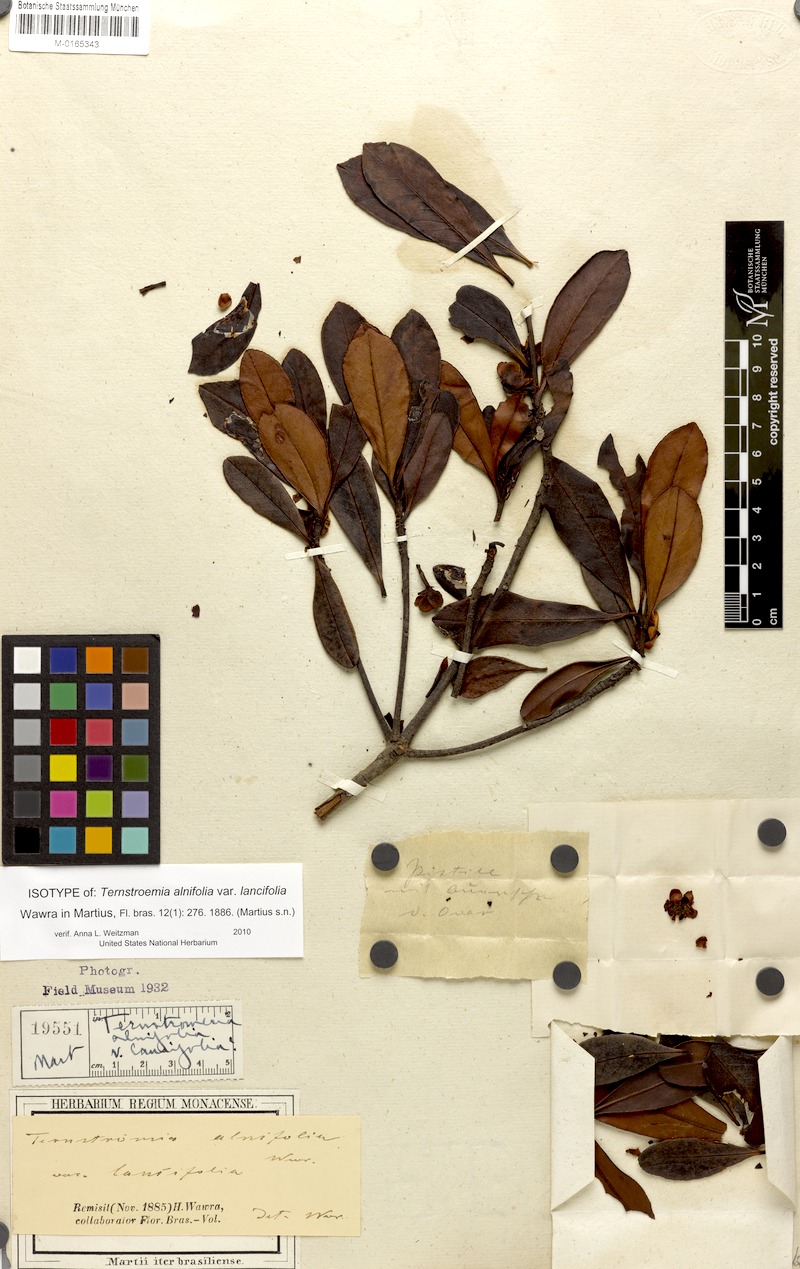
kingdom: Plantae
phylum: Tracheophyta
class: Magnoliopsida
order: Ericales
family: Pentaphylacaceae
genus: Ternstroemia
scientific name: Ternstroemia brasiliensis
